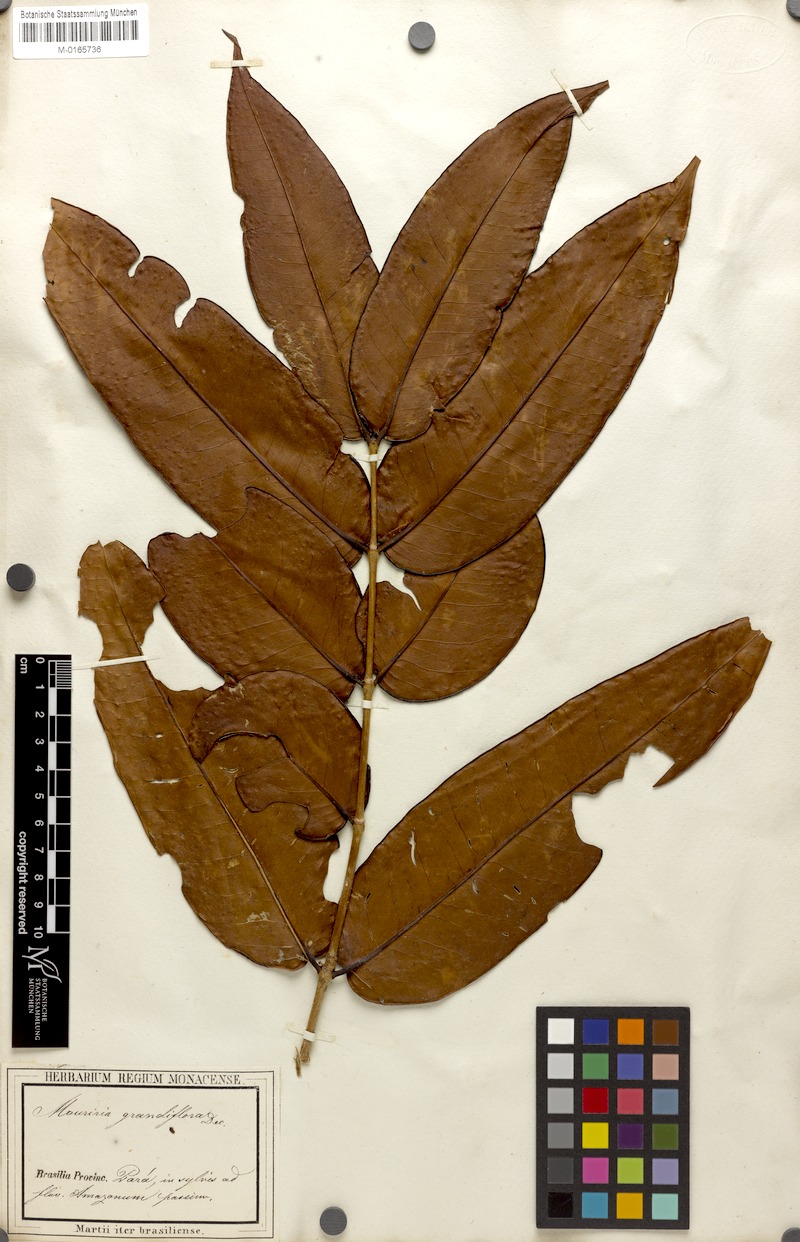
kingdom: Plantae
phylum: Tracheophyta
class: Magnoliopsida
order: Myrtales
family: Melastomataceae
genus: Mouriri
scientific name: Mouriri grandiflora
